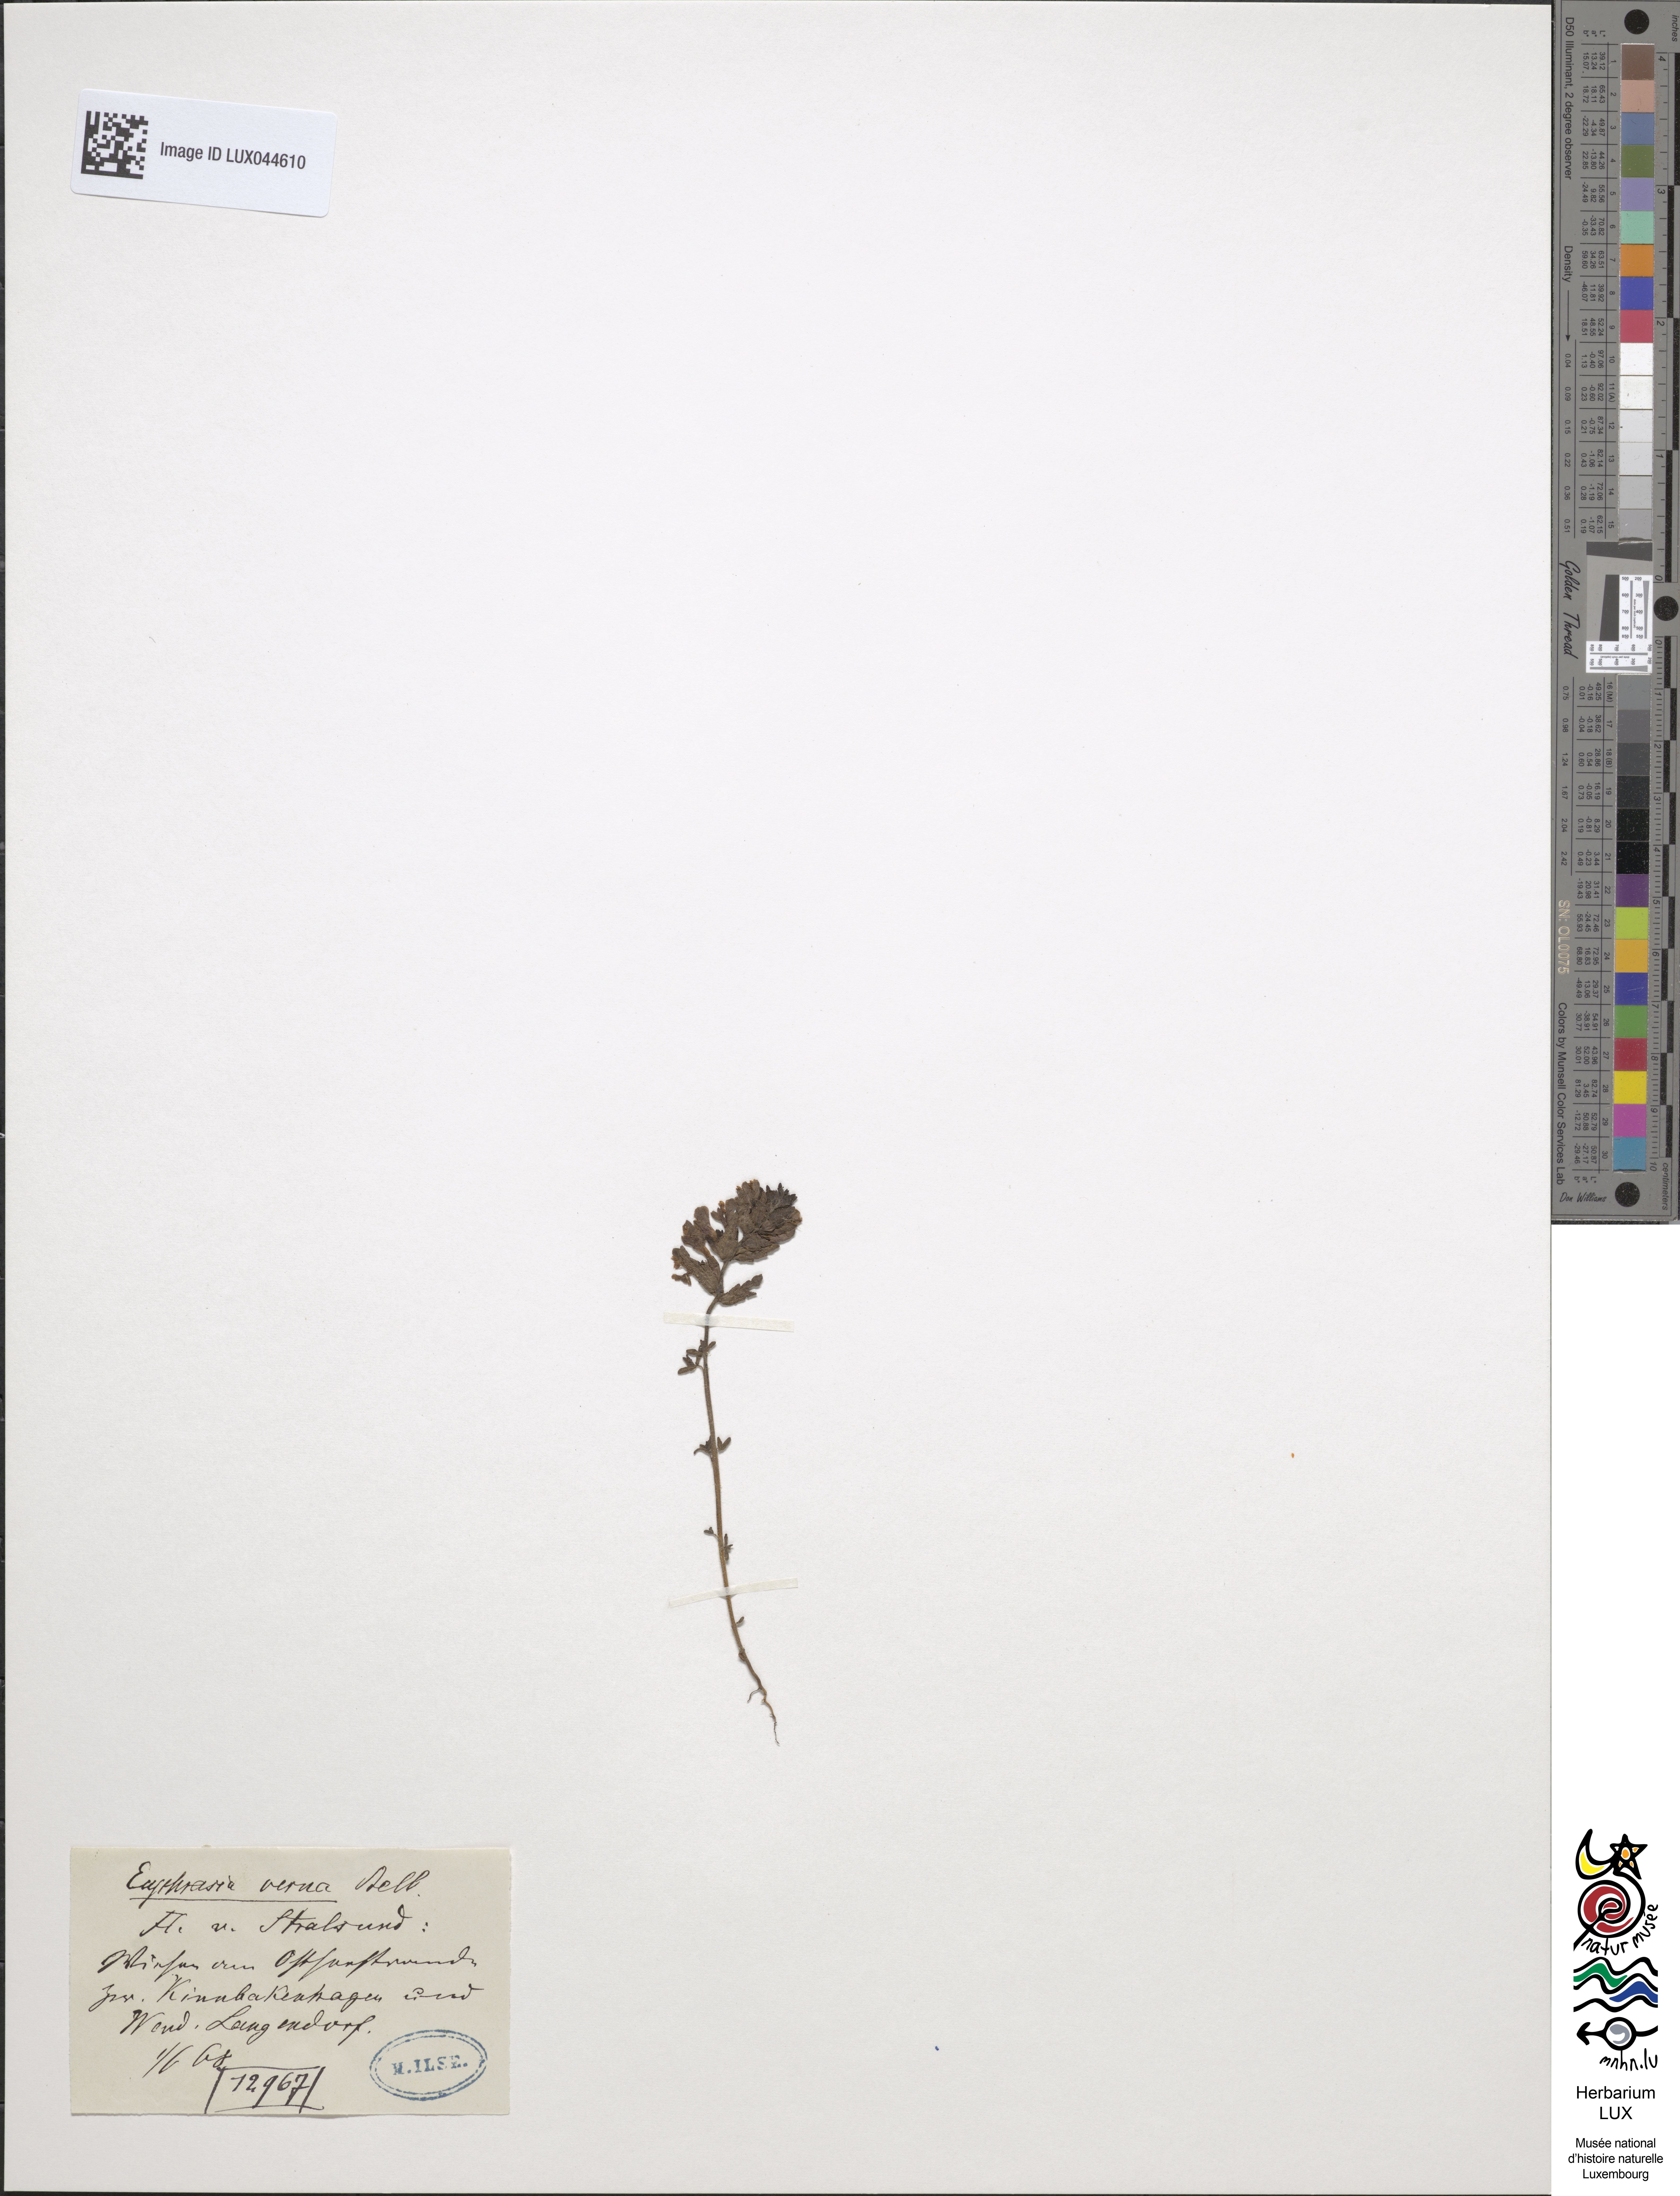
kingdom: Plantae
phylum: Tracheophyta
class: Magnoliopsida
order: Lamiales
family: Orobanchaceae
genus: Odontites
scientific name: Odontites vernus
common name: Red bartsia
